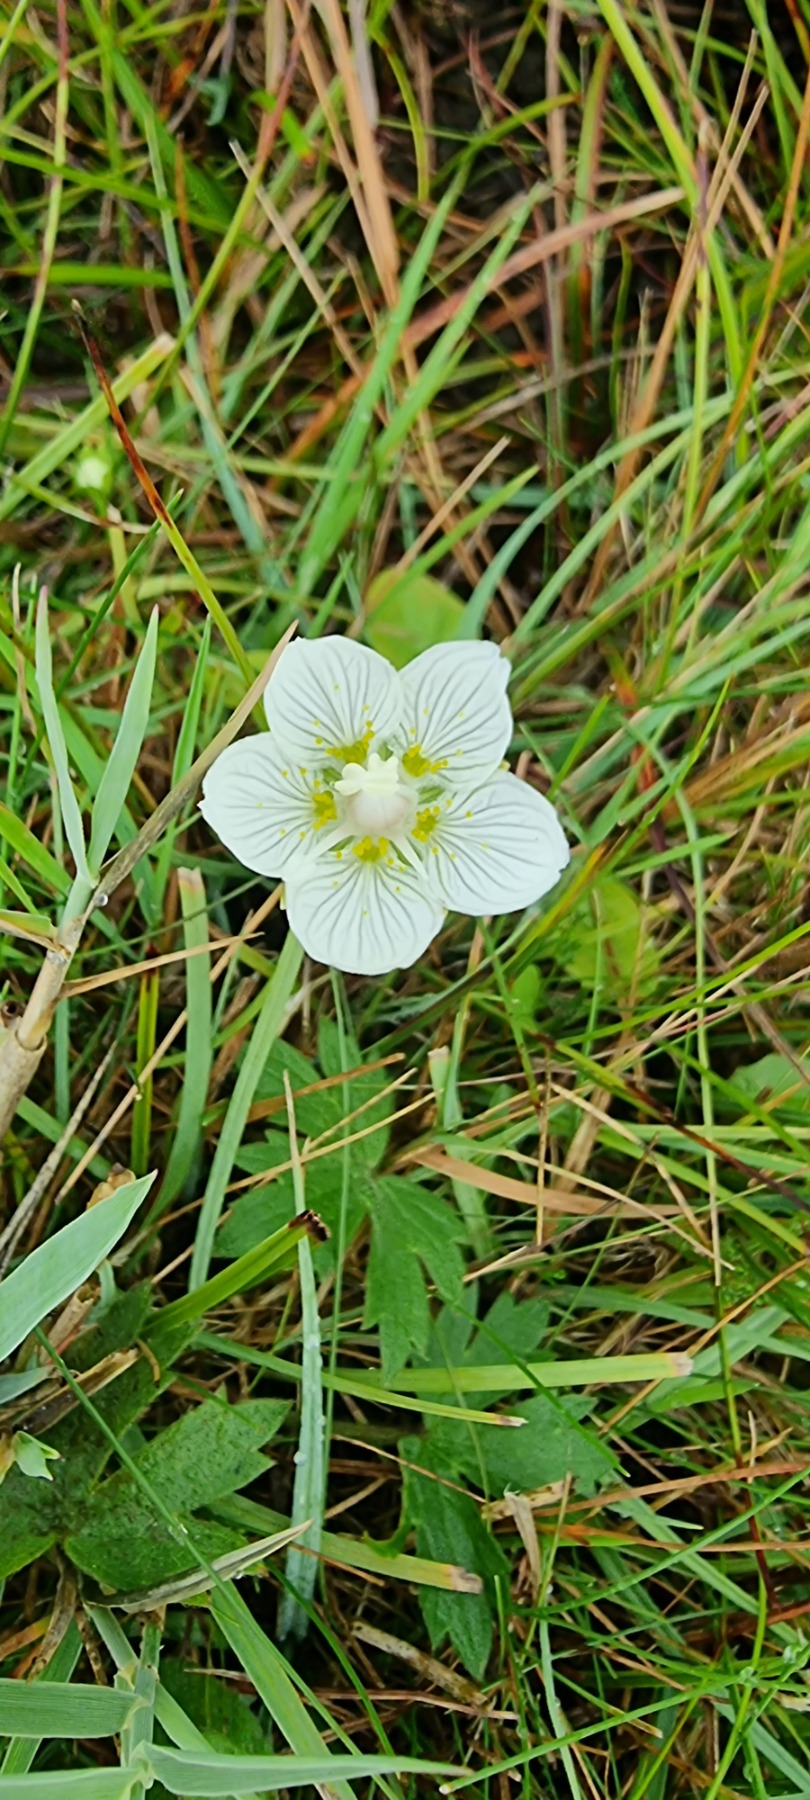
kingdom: Plantae
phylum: Tracheophyta
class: Magnoliopsida
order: Celastrales
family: Parnassiaceae
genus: Parnassia
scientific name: Parnassia palustris
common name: Leverurt
